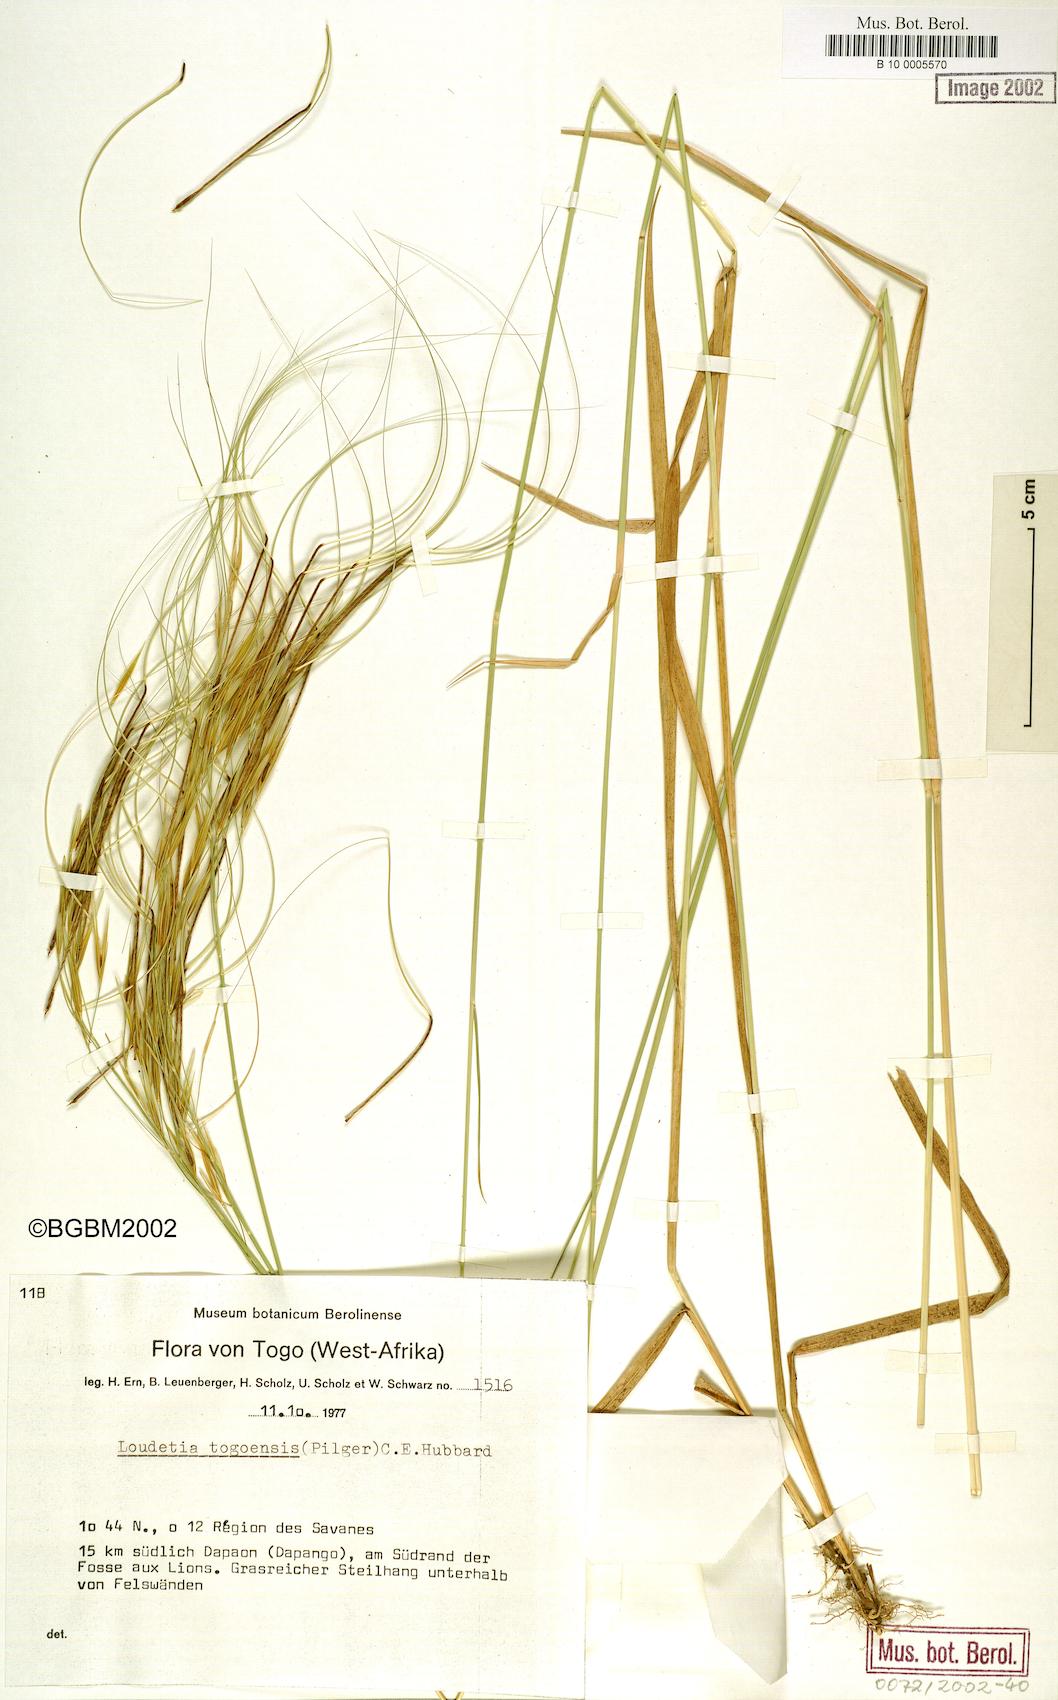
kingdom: Plantae
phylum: Tracheophyta
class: Liliopsida
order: Poales
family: Poaceae
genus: Loudetia
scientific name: Loudetia togoensis
